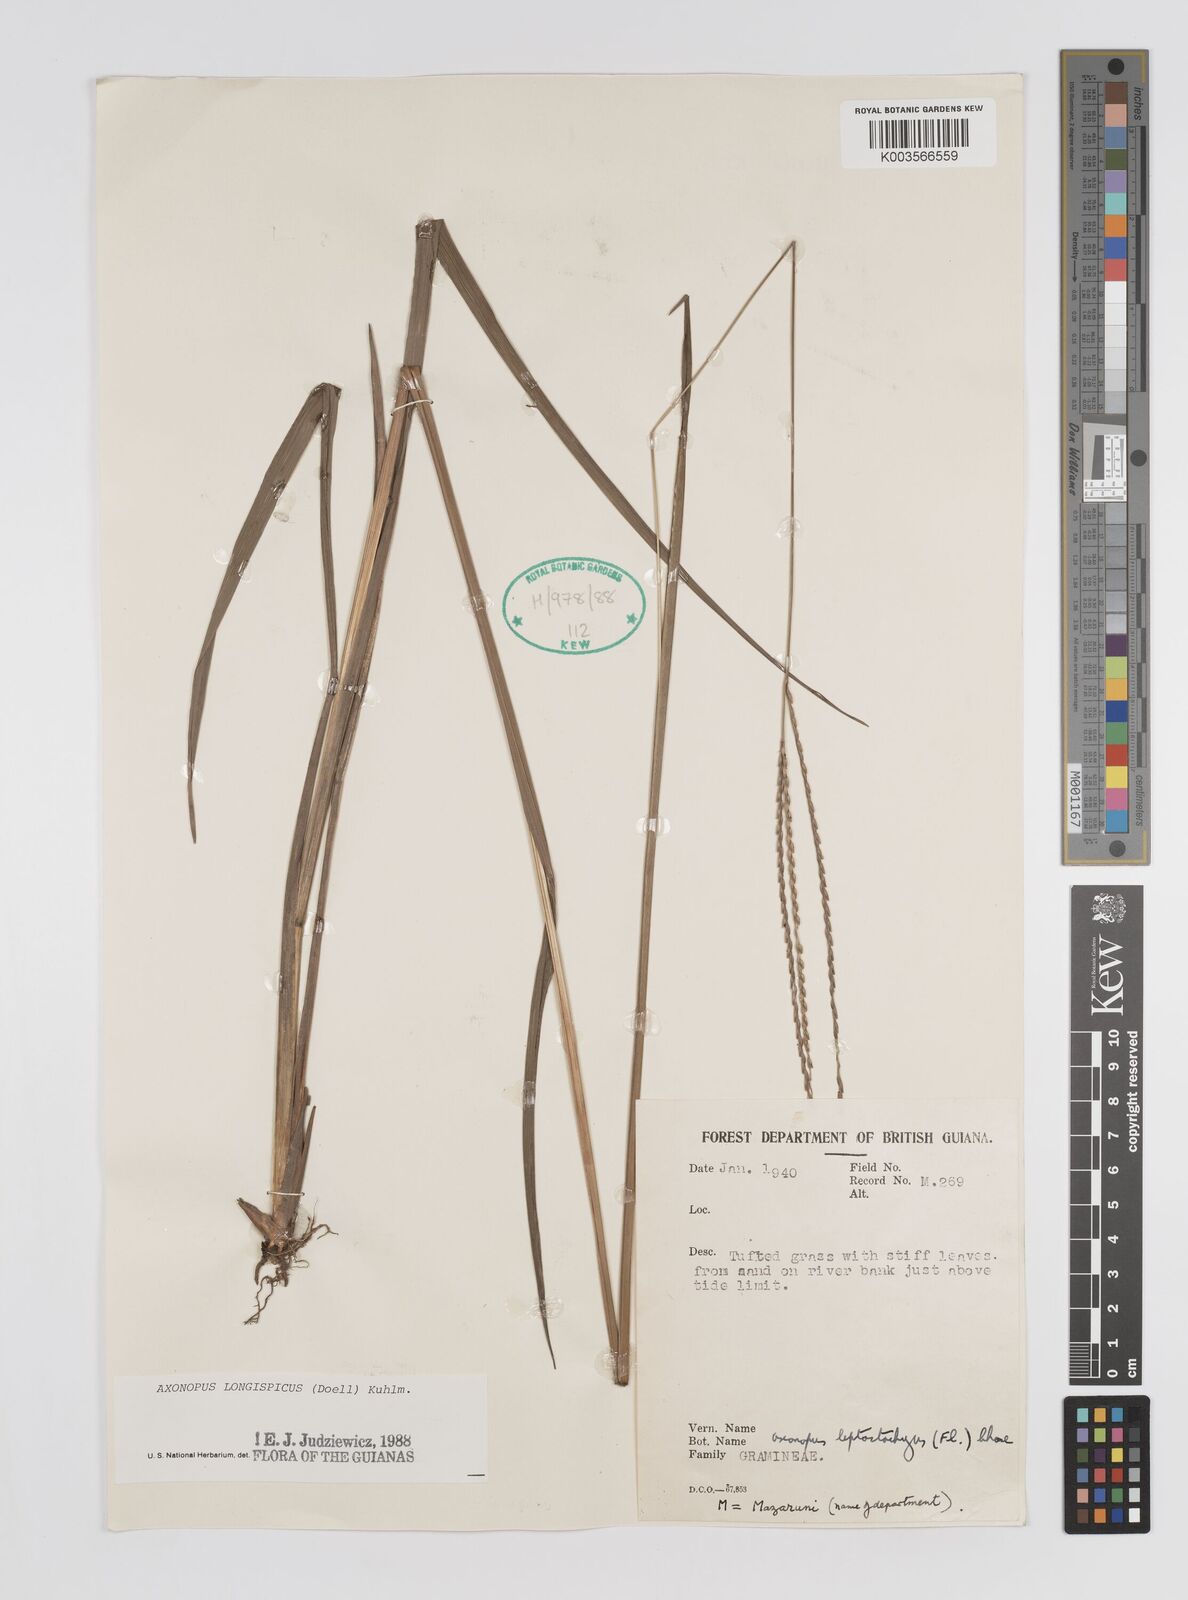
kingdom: Plantae
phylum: Tracheophyta
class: Liliopsida
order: Poales
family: Poaceae
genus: Axonopus
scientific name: Axonopus longispicus
